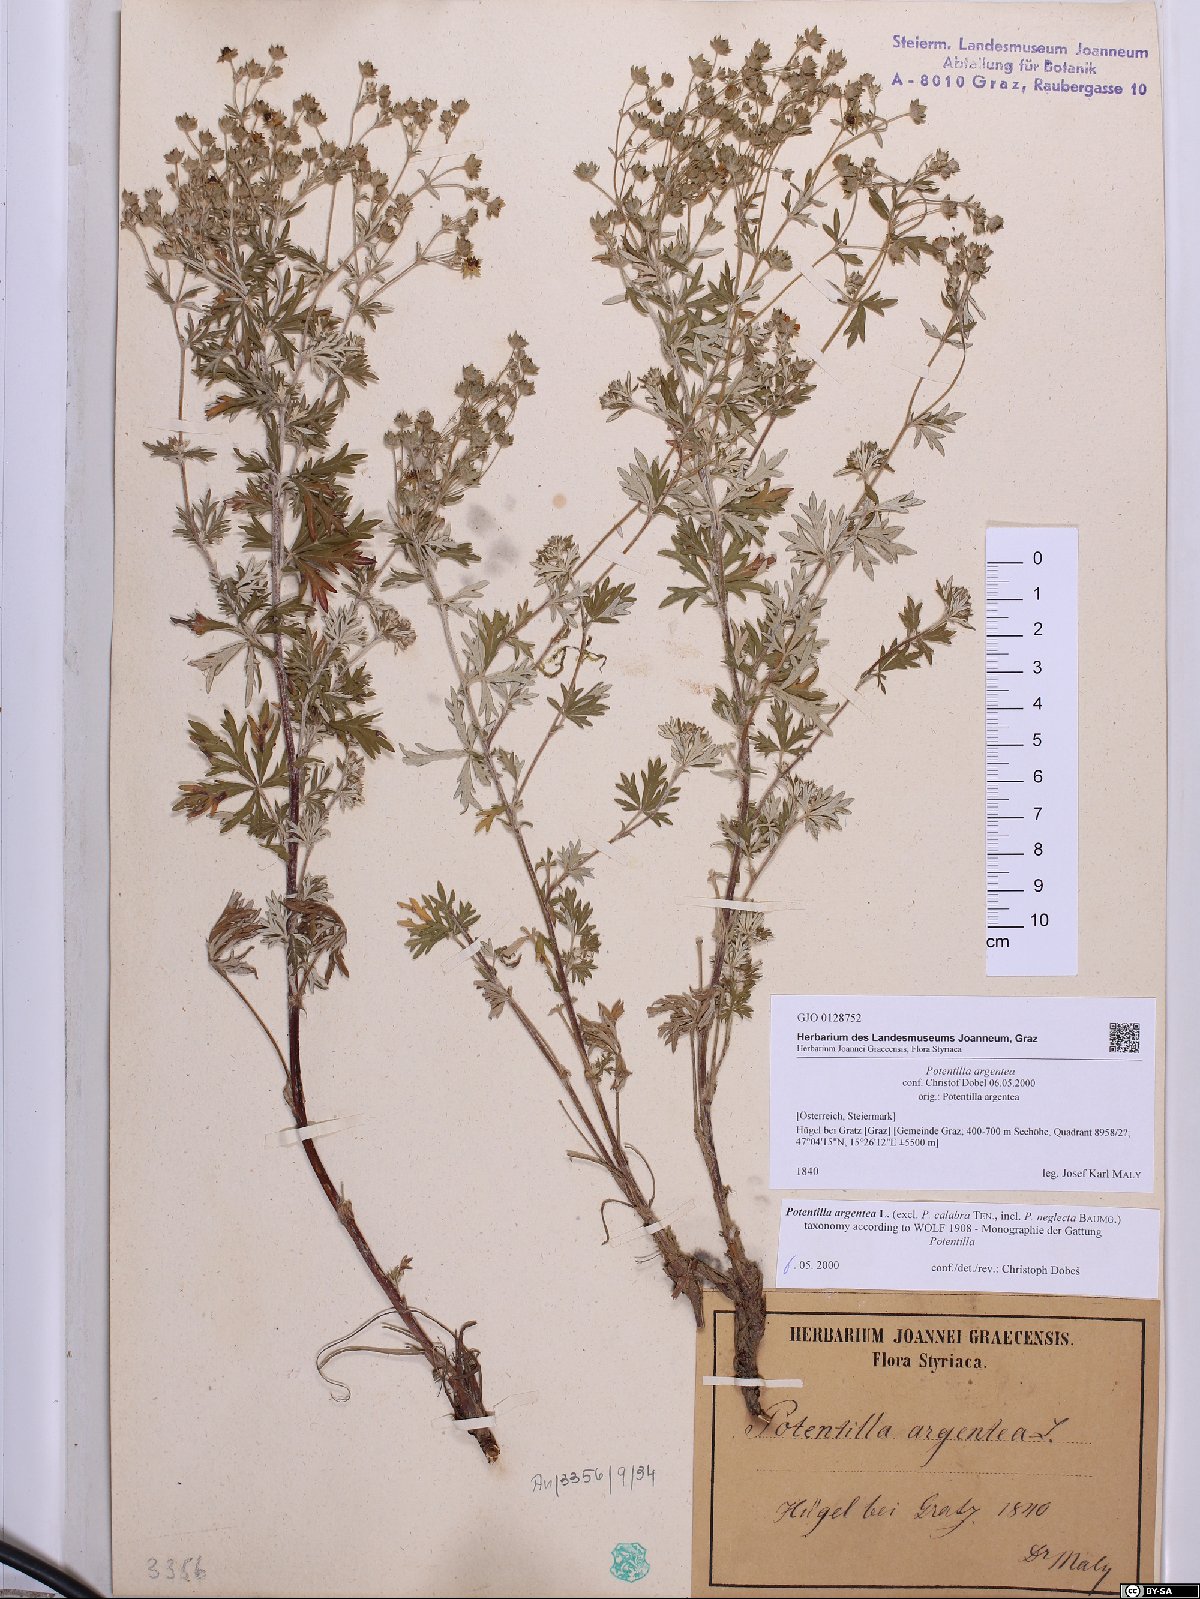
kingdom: Plantae
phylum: Tracheophyta
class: Magnoliopsida
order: Rosales
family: Rosaceae
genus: Potentilla
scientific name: Potentilla argentea
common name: Hoary cinquefoil
